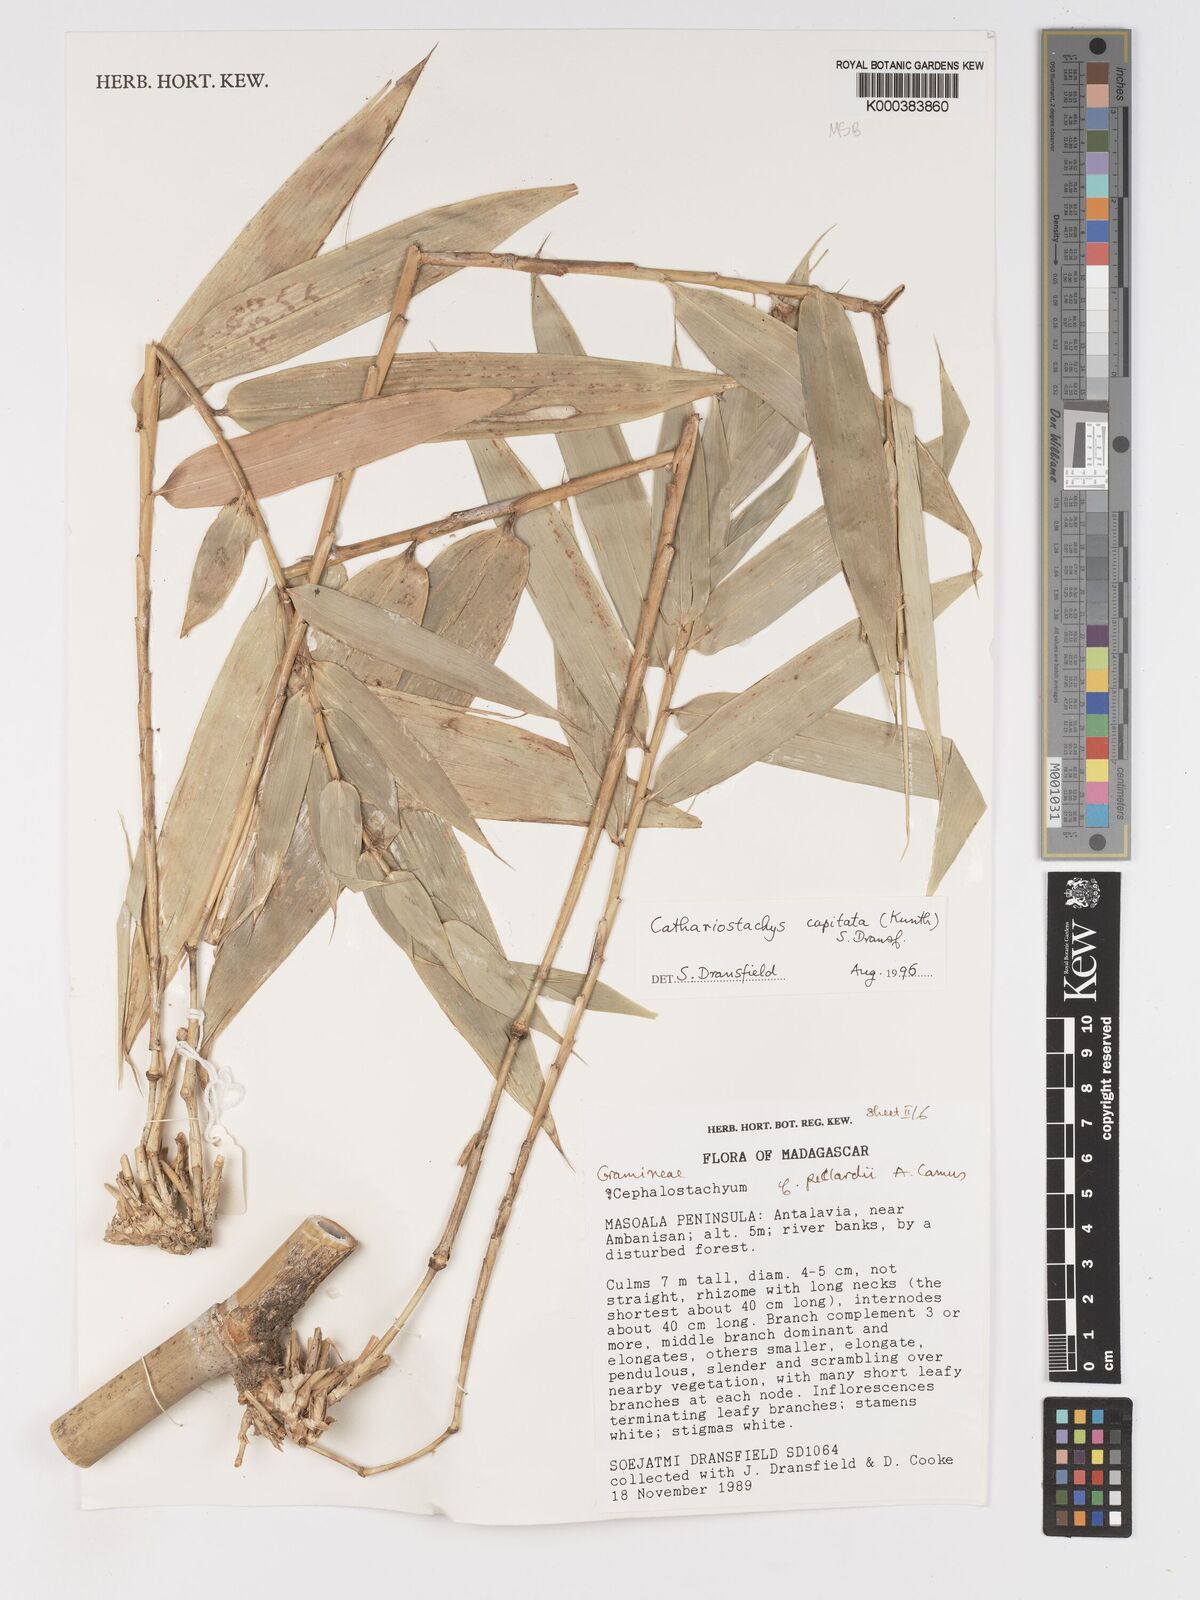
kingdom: Plantae
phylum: Tracheophyta
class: Liliopsida
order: Poales
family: Poaceae
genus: Cathariostachys
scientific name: Cathariostachys capitata
